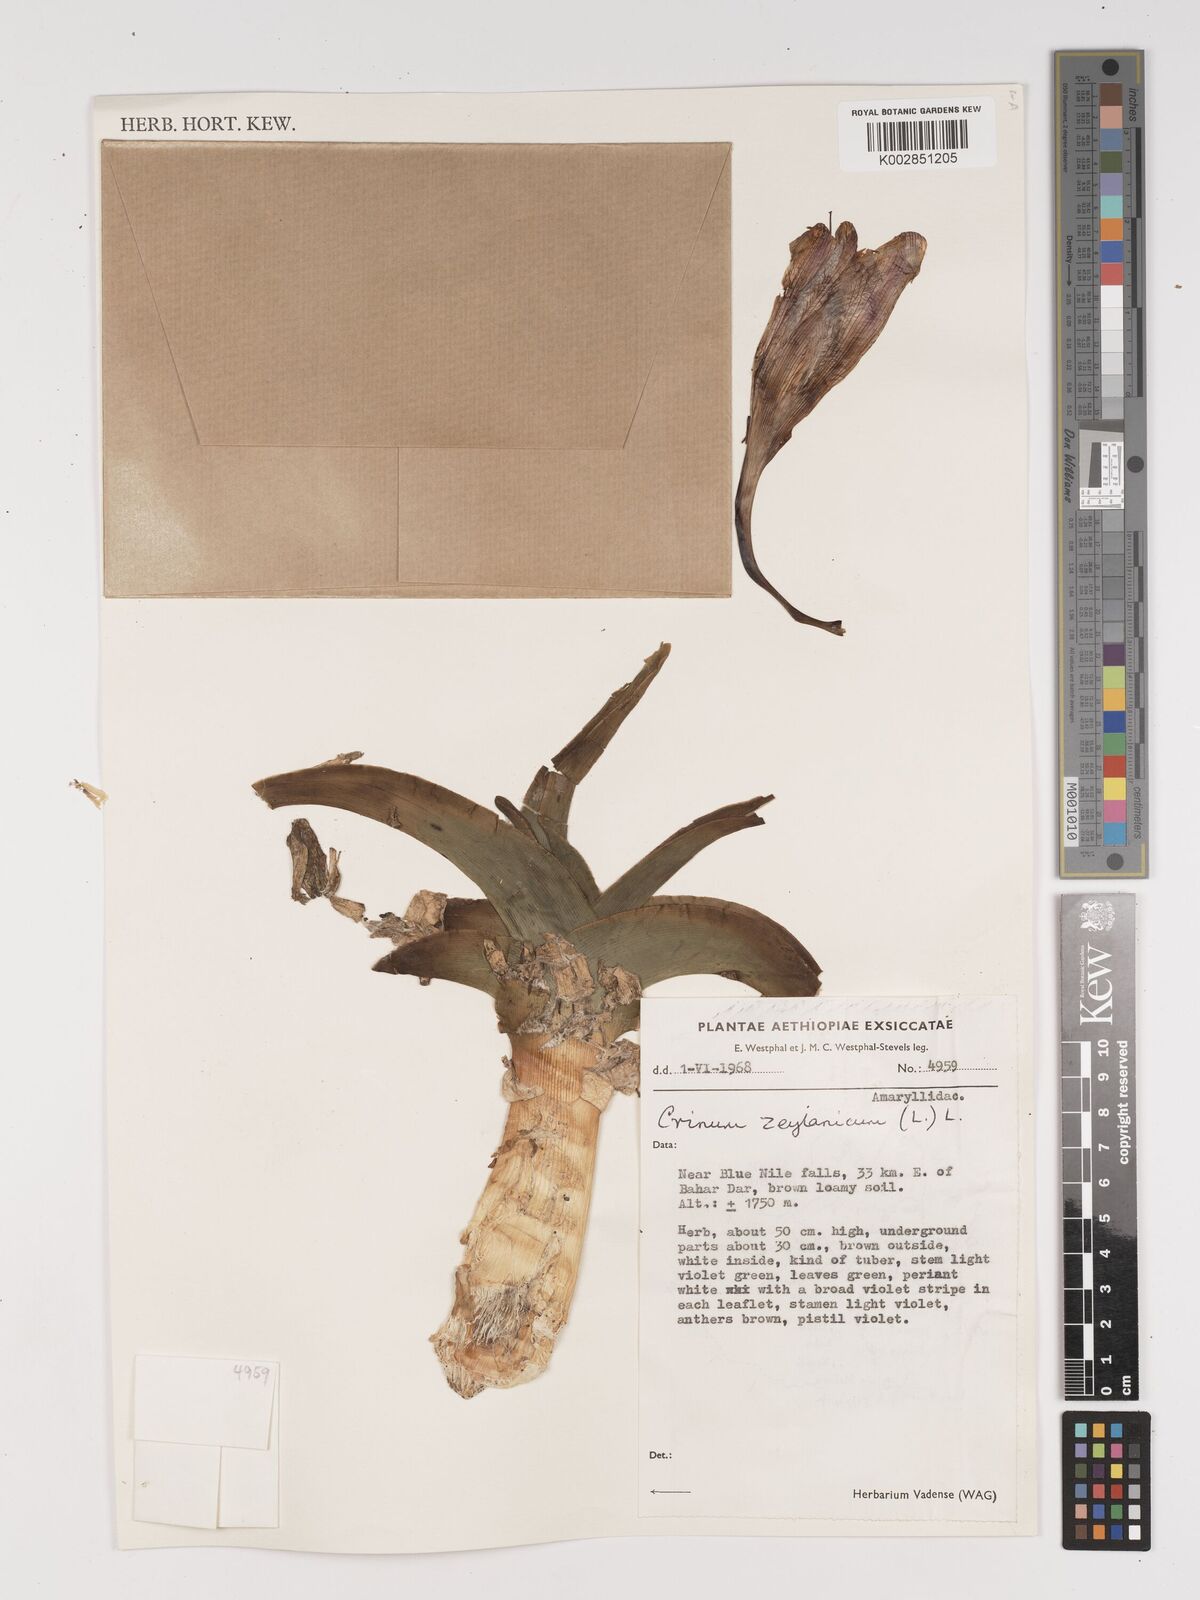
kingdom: Plantae
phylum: Tracheophyta
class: Liliopsida
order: Asparagales
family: Amaryllidaceae
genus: Crinum
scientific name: Crinum zeylanicum
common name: Ceylon swamplily
